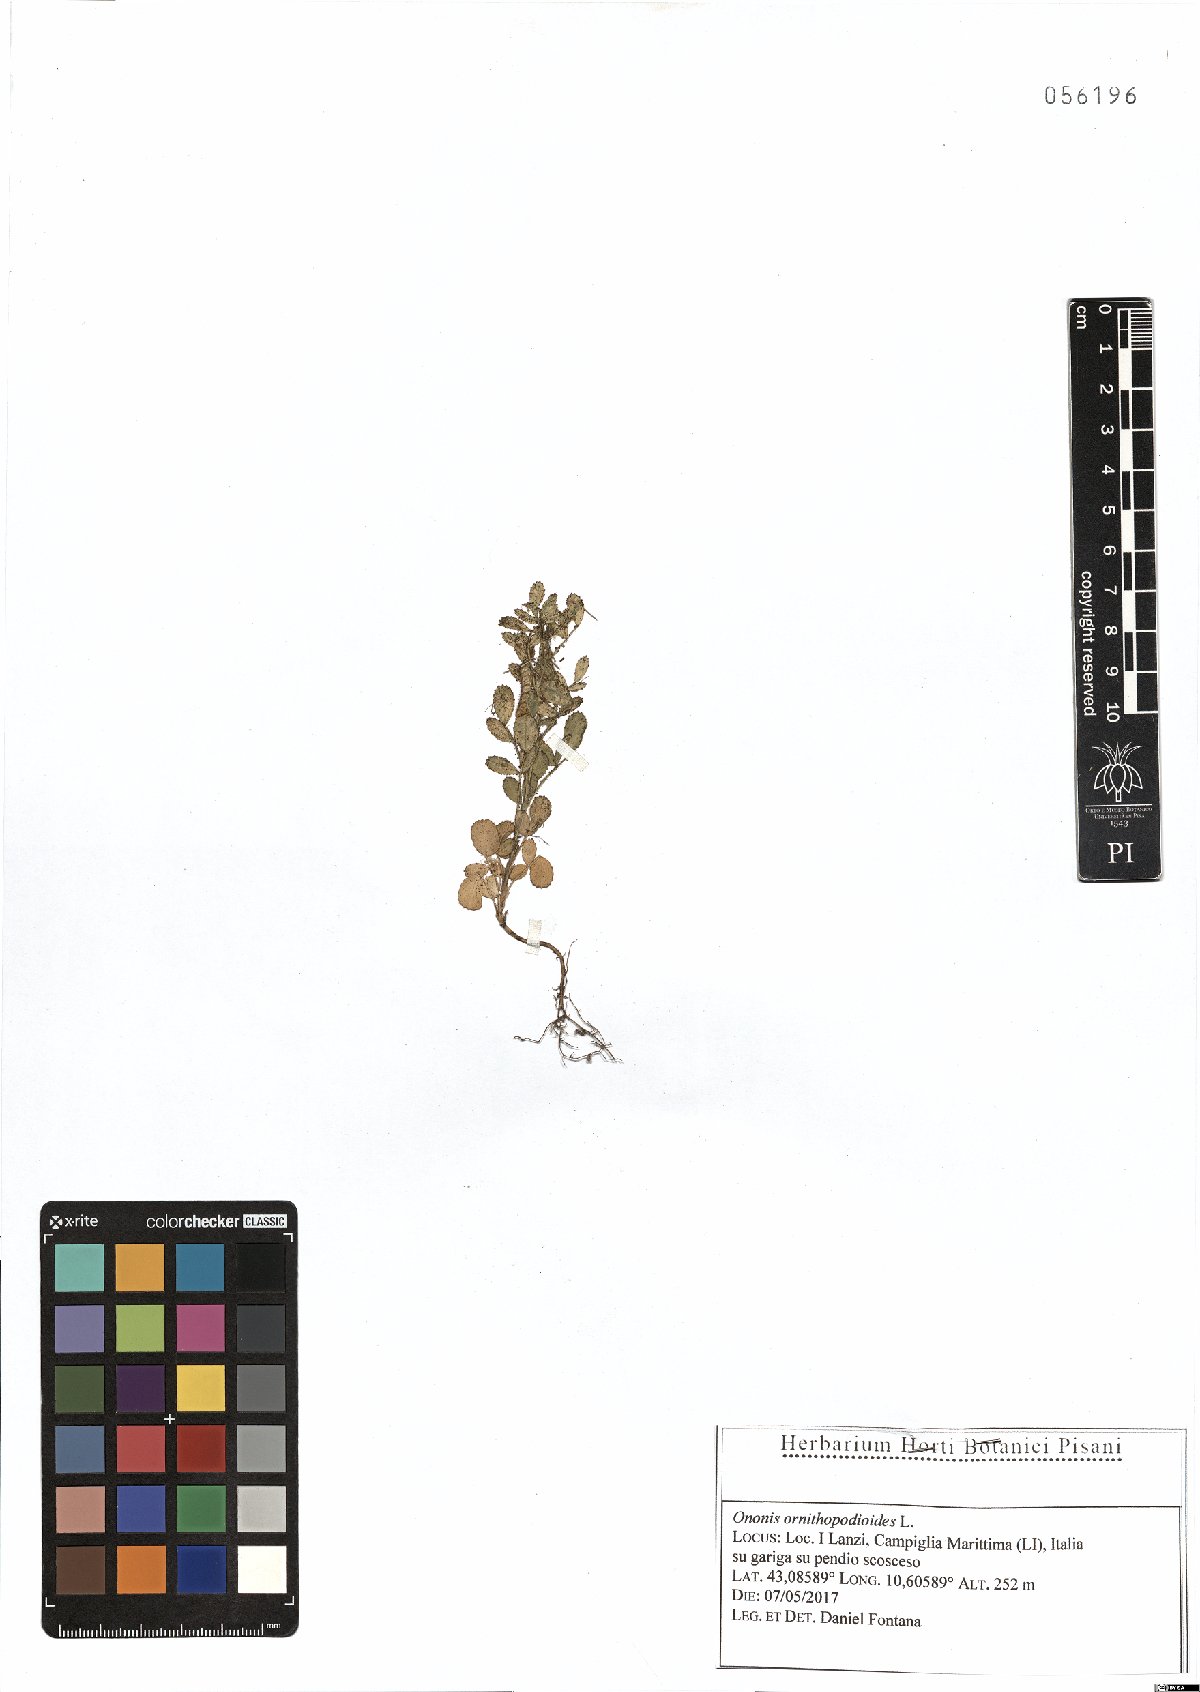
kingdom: Plantae
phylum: Tracheophyta
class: Magnoliopsida
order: Fabales
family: Fabaceae
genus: Ononis
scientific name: Ononis ornithopodioides
